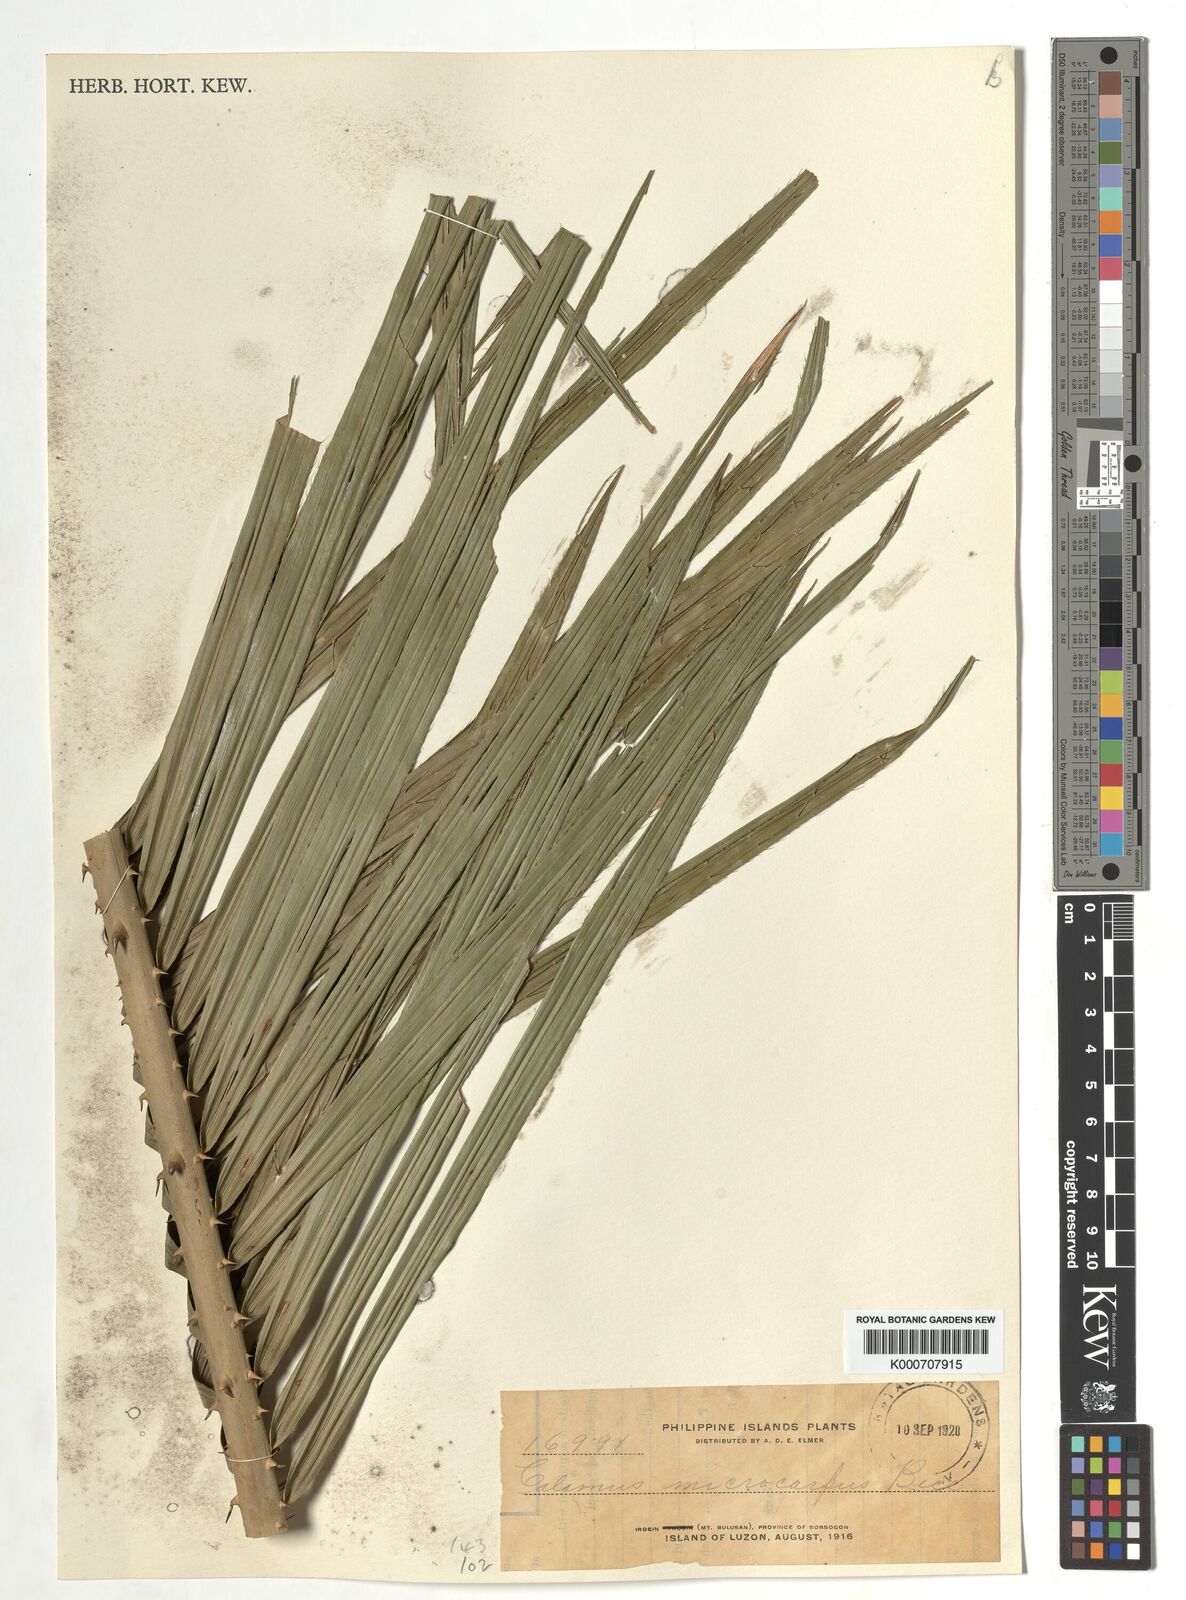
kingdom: Plantae
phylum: Tracheophyta
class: Liliopsida
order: Arecales
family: Arecaceae
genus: Calamus
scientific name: Calamus siphonospathus
